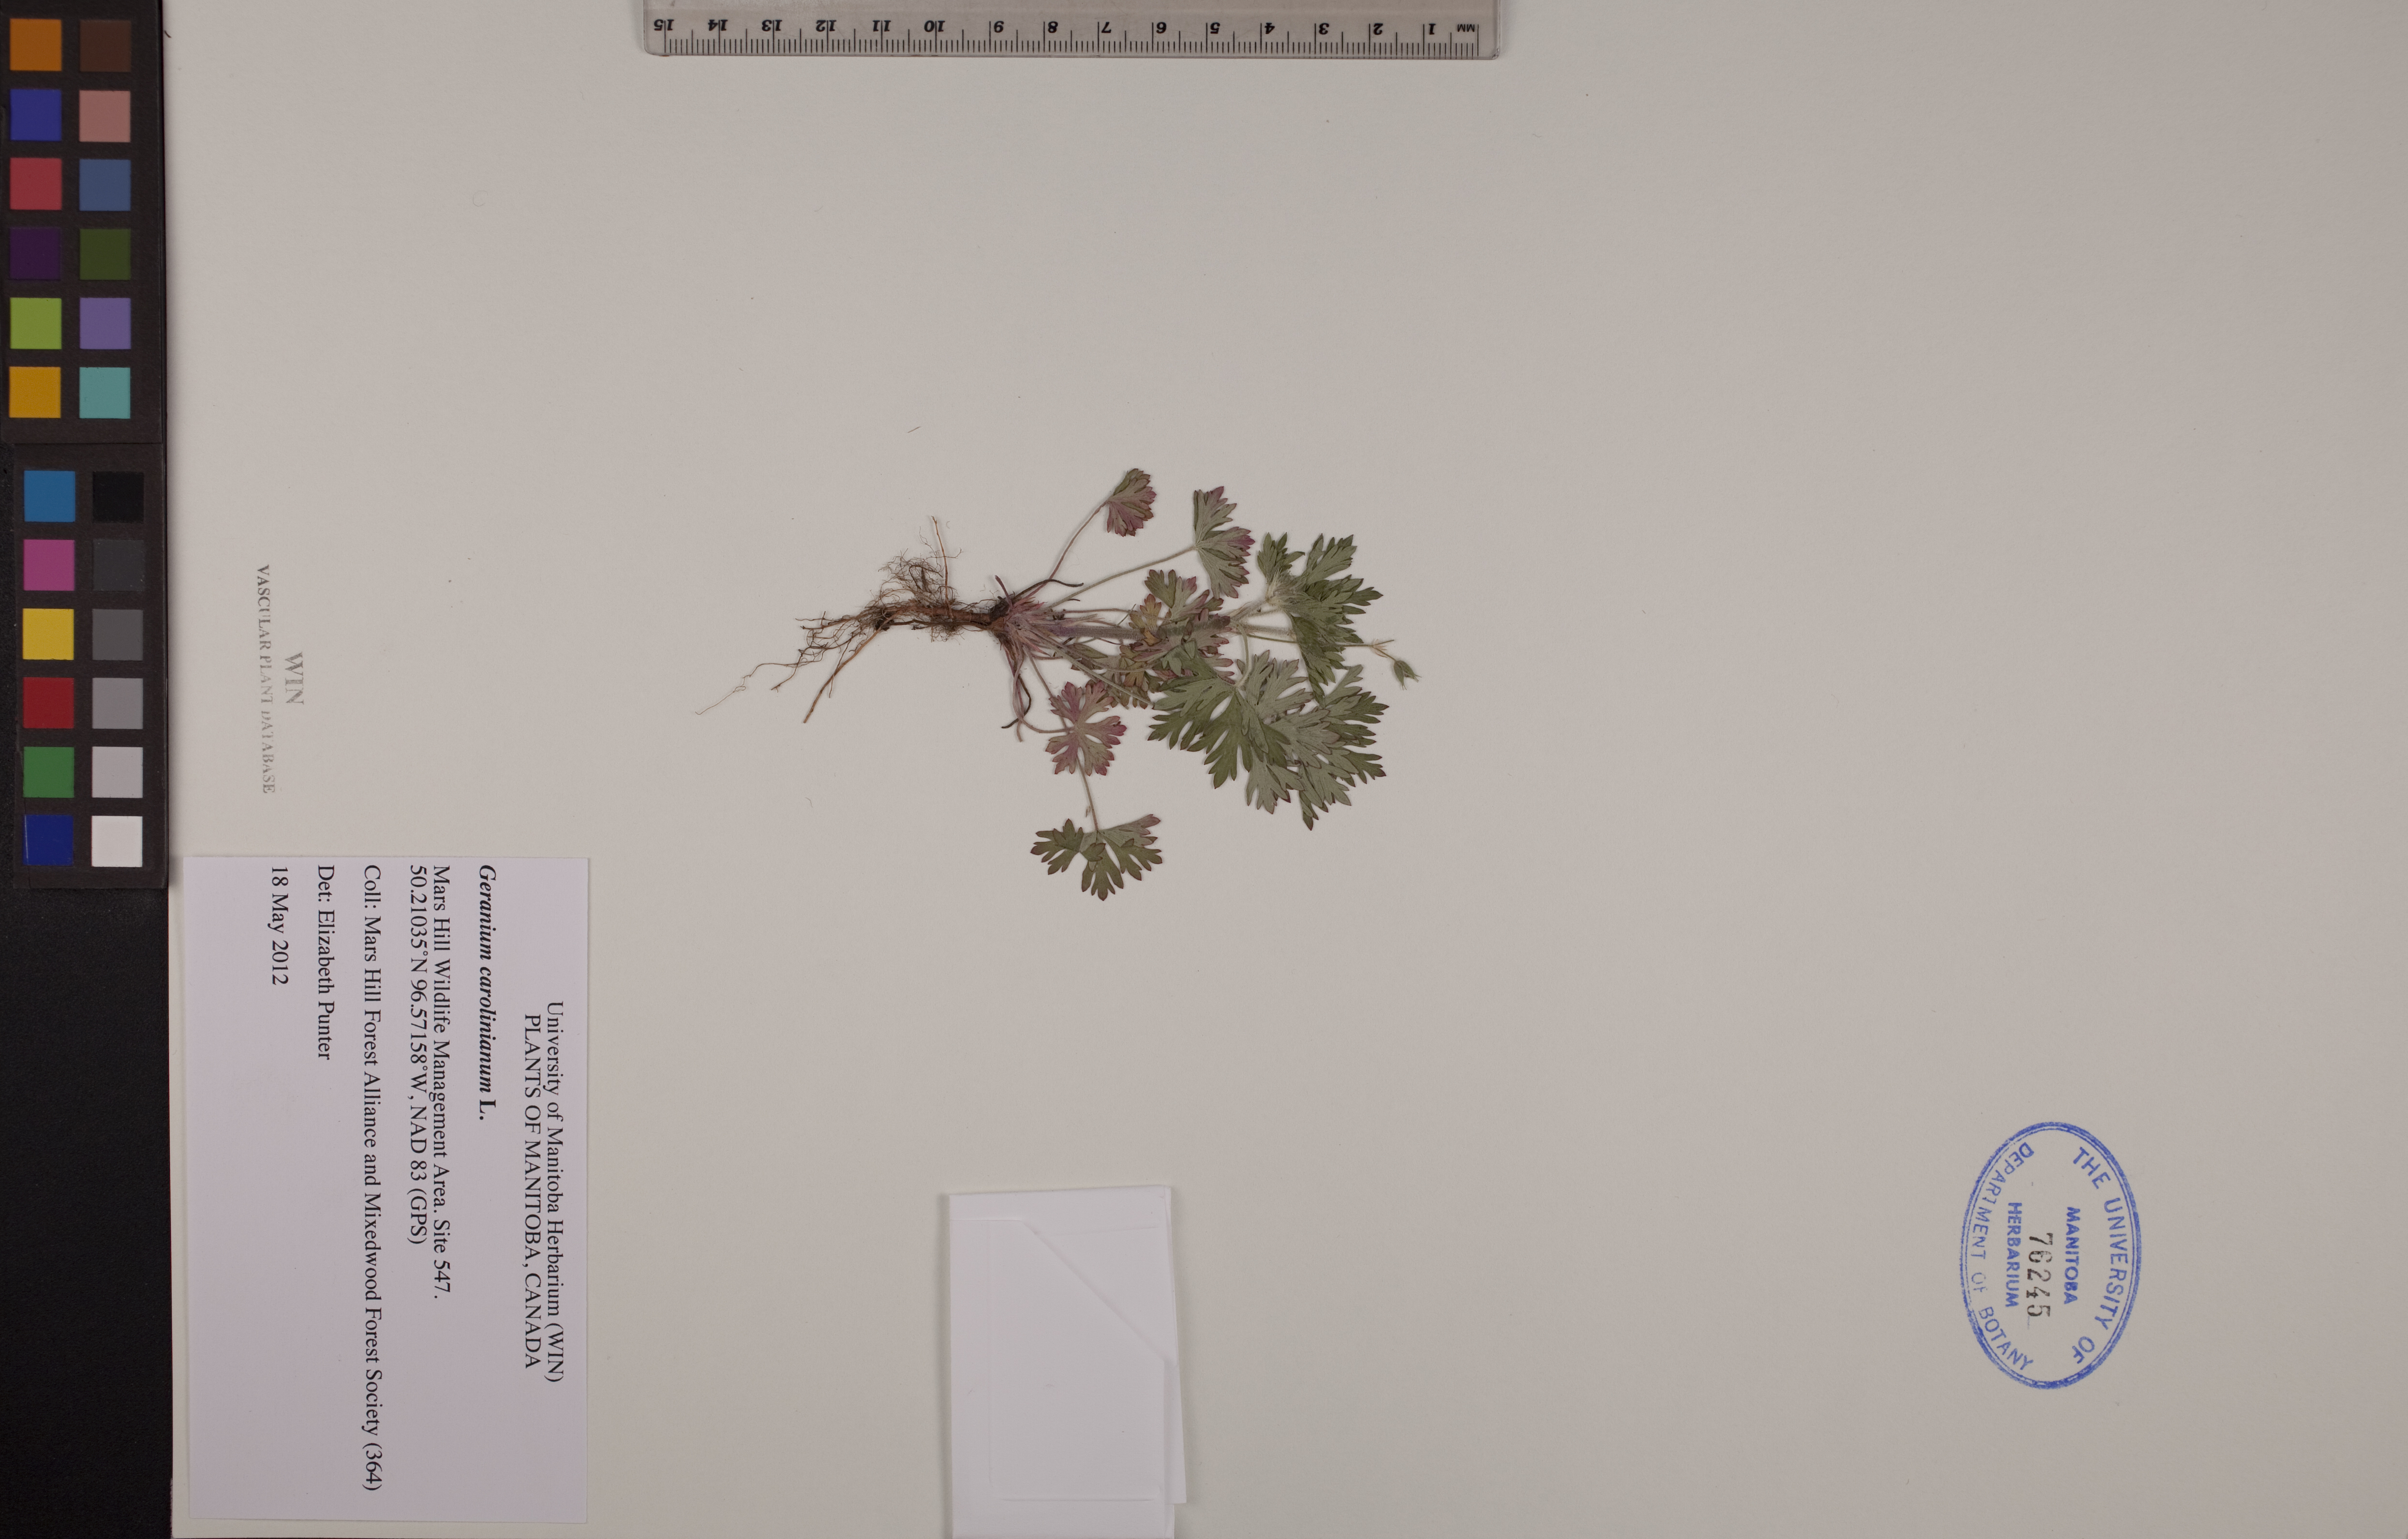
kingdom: Plantae
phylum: Tracheophyta
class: Magnoliopsida
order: Geraniales
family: Geraniaceae
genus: Geranium
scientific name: Geranium carolinianum
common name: Carolina crane's-bill
